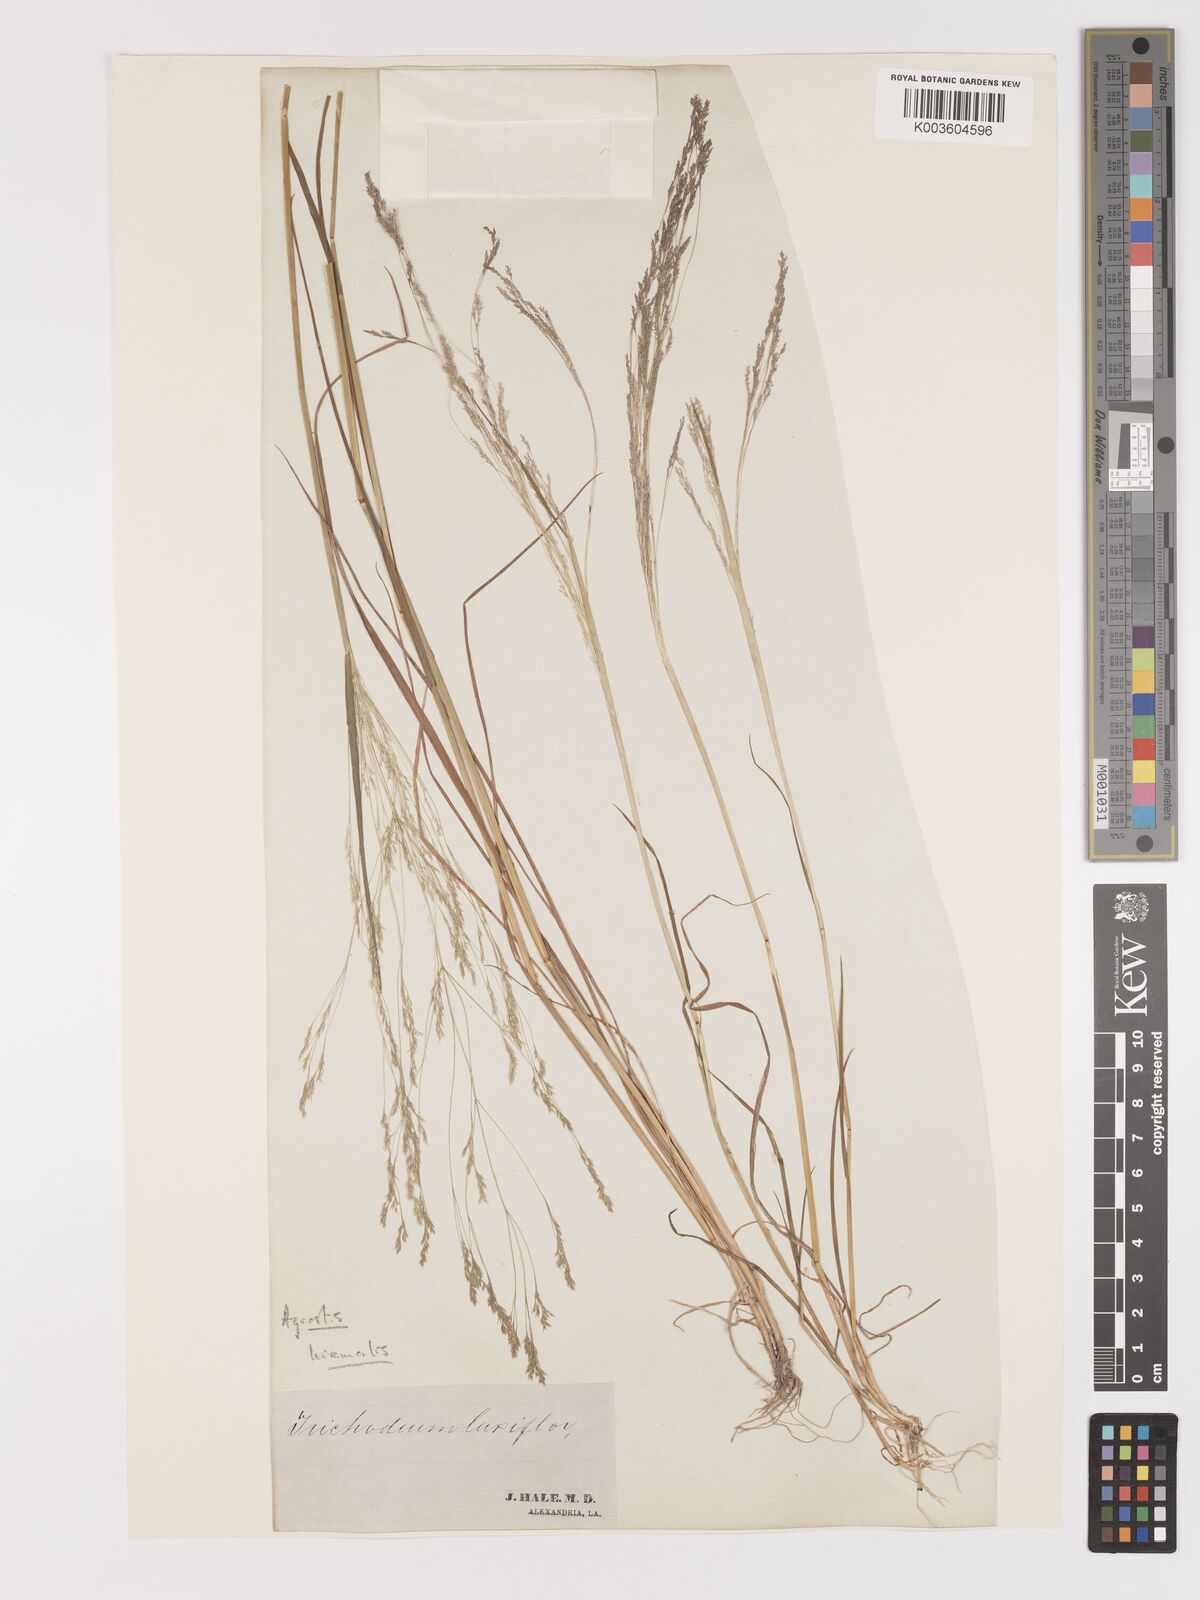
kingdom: Plantae
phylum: Tracheophyta
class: Liliopsida
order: Poales
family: Poaceae
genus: Agrostis
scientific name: Agrostis hyemalis
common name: Small bent
